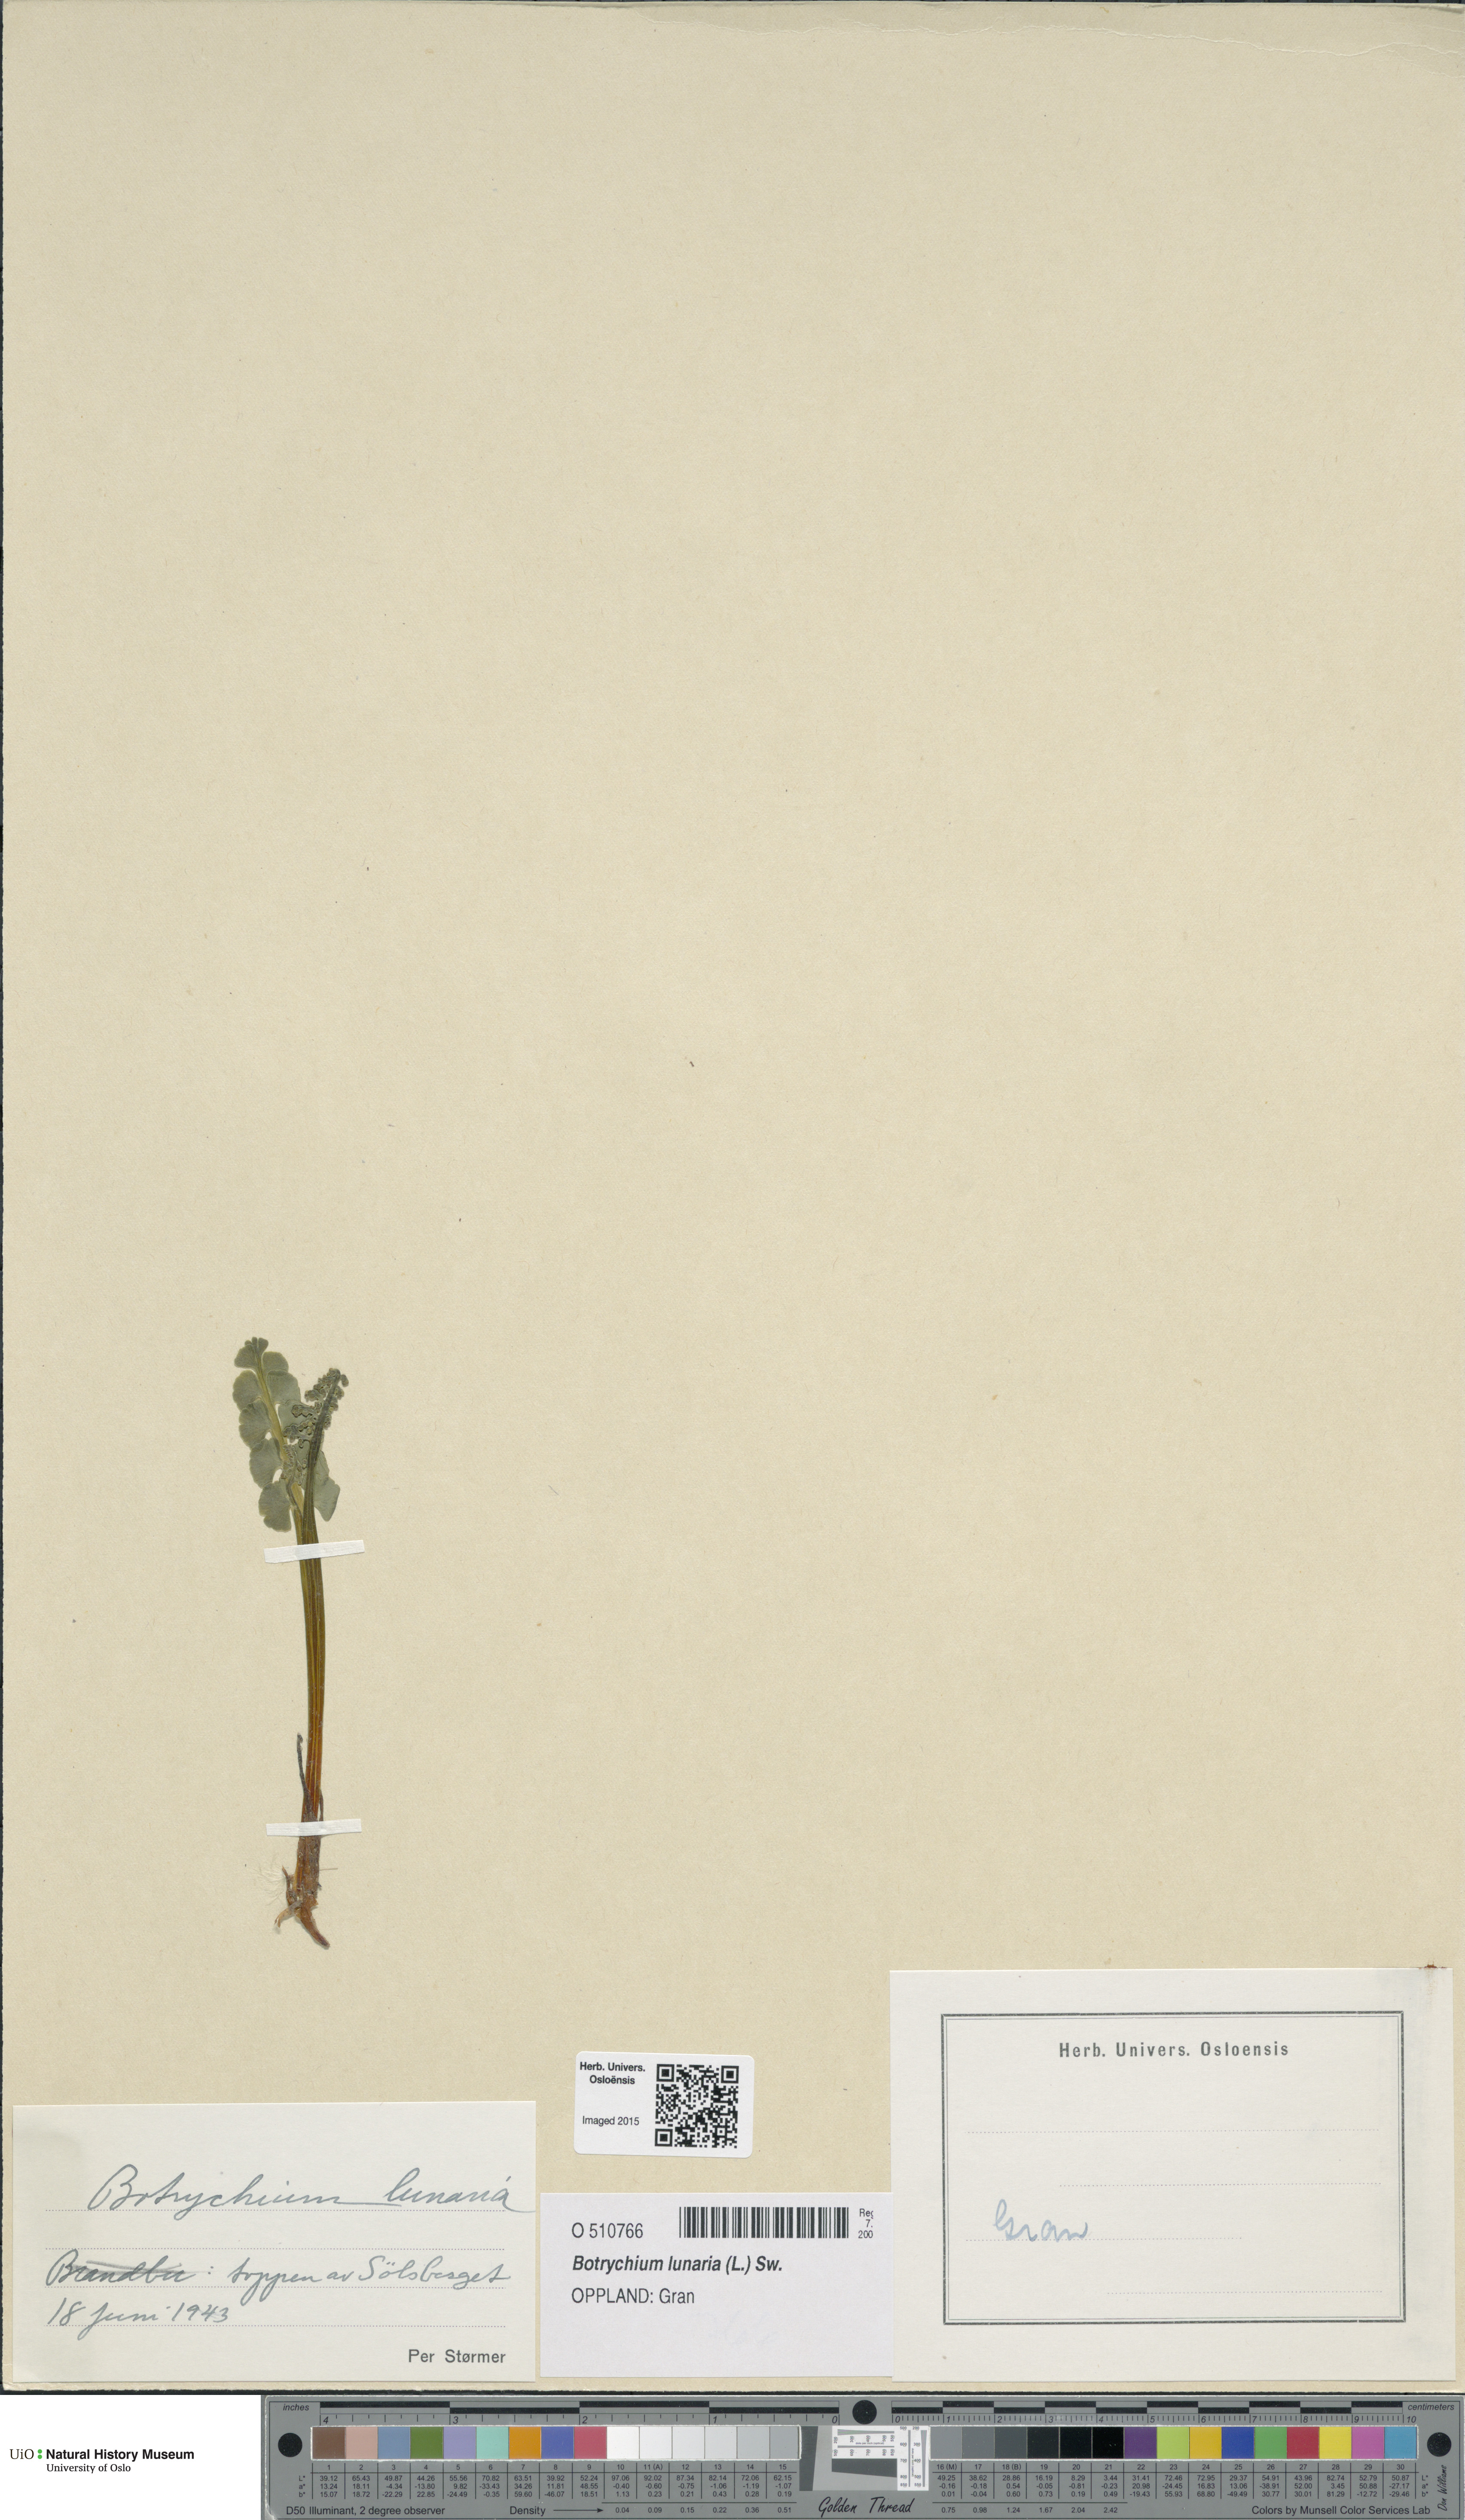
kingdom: Plantae
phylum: Tracheophyta
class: Polypodiopsida
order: Ophioglossales
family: Ophioglossaceae
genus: Botrychium
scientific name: Botrychium lunaria
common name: Moonwort
